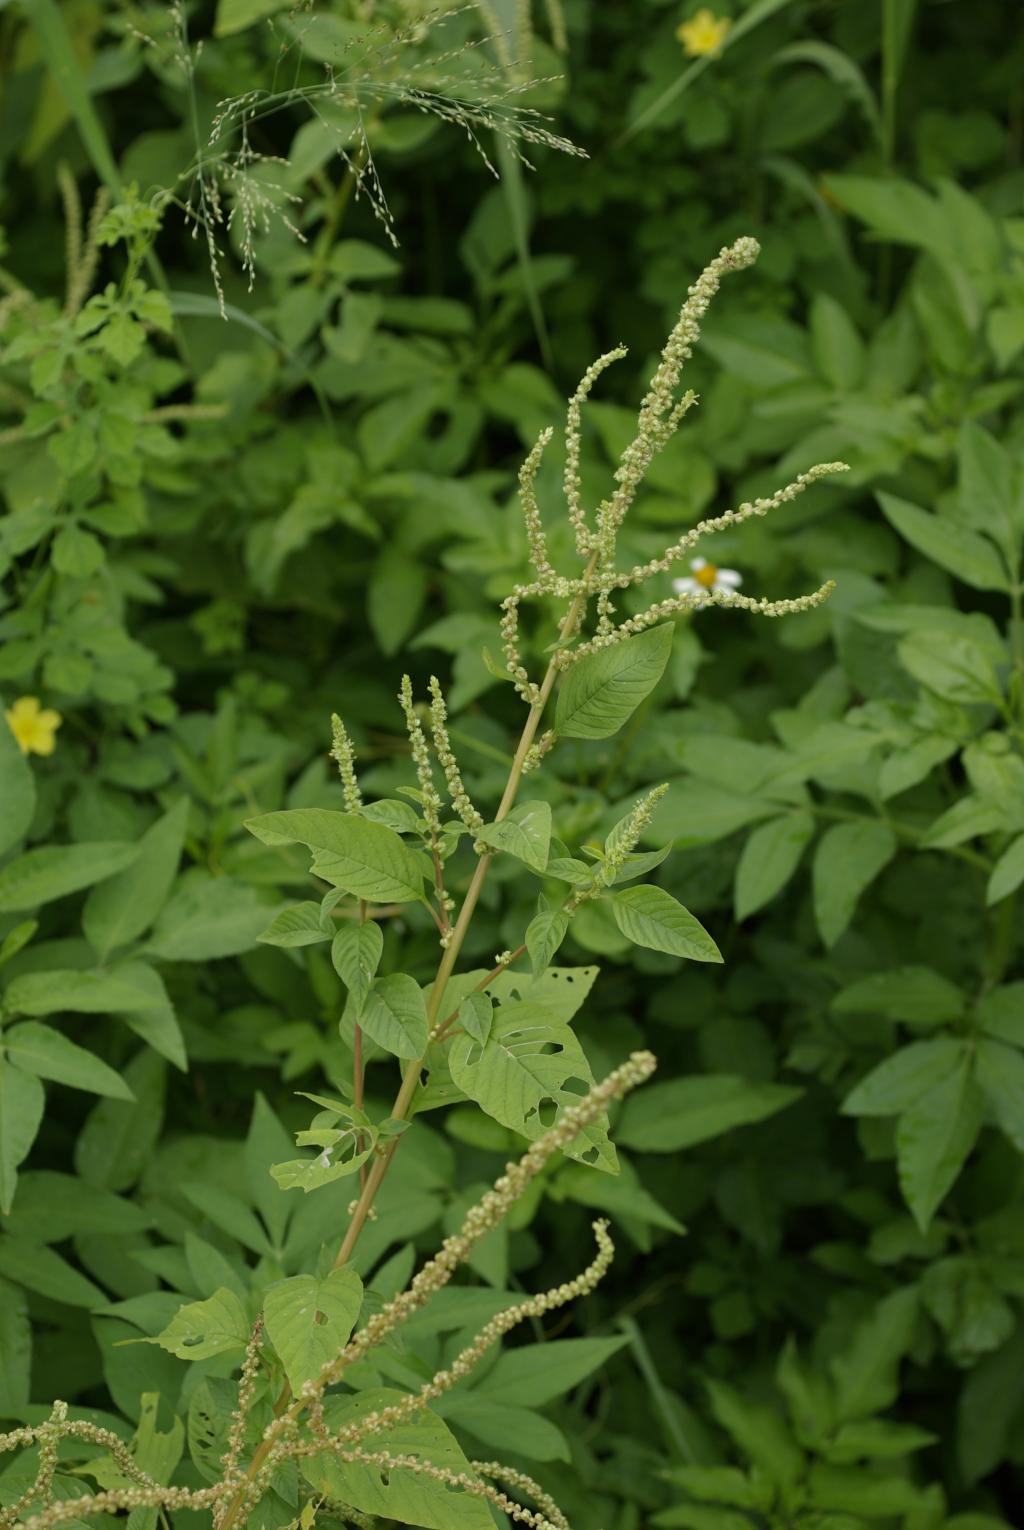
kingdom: Plantae
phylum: Tracheophyta
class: Magnoliopsida
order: Caryophyllales
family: Amaranthaceae
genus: Amaranthus
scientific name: Amaranthus viridis
